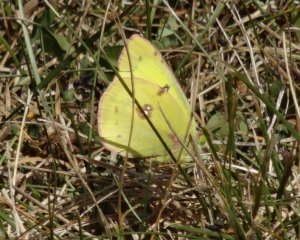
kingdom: Animalia
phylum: Arthropoda
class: Insecta
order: Lepidoptera
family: Pieridae
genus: Colias
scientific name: Colias philodice
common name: Clouded Sulphur
